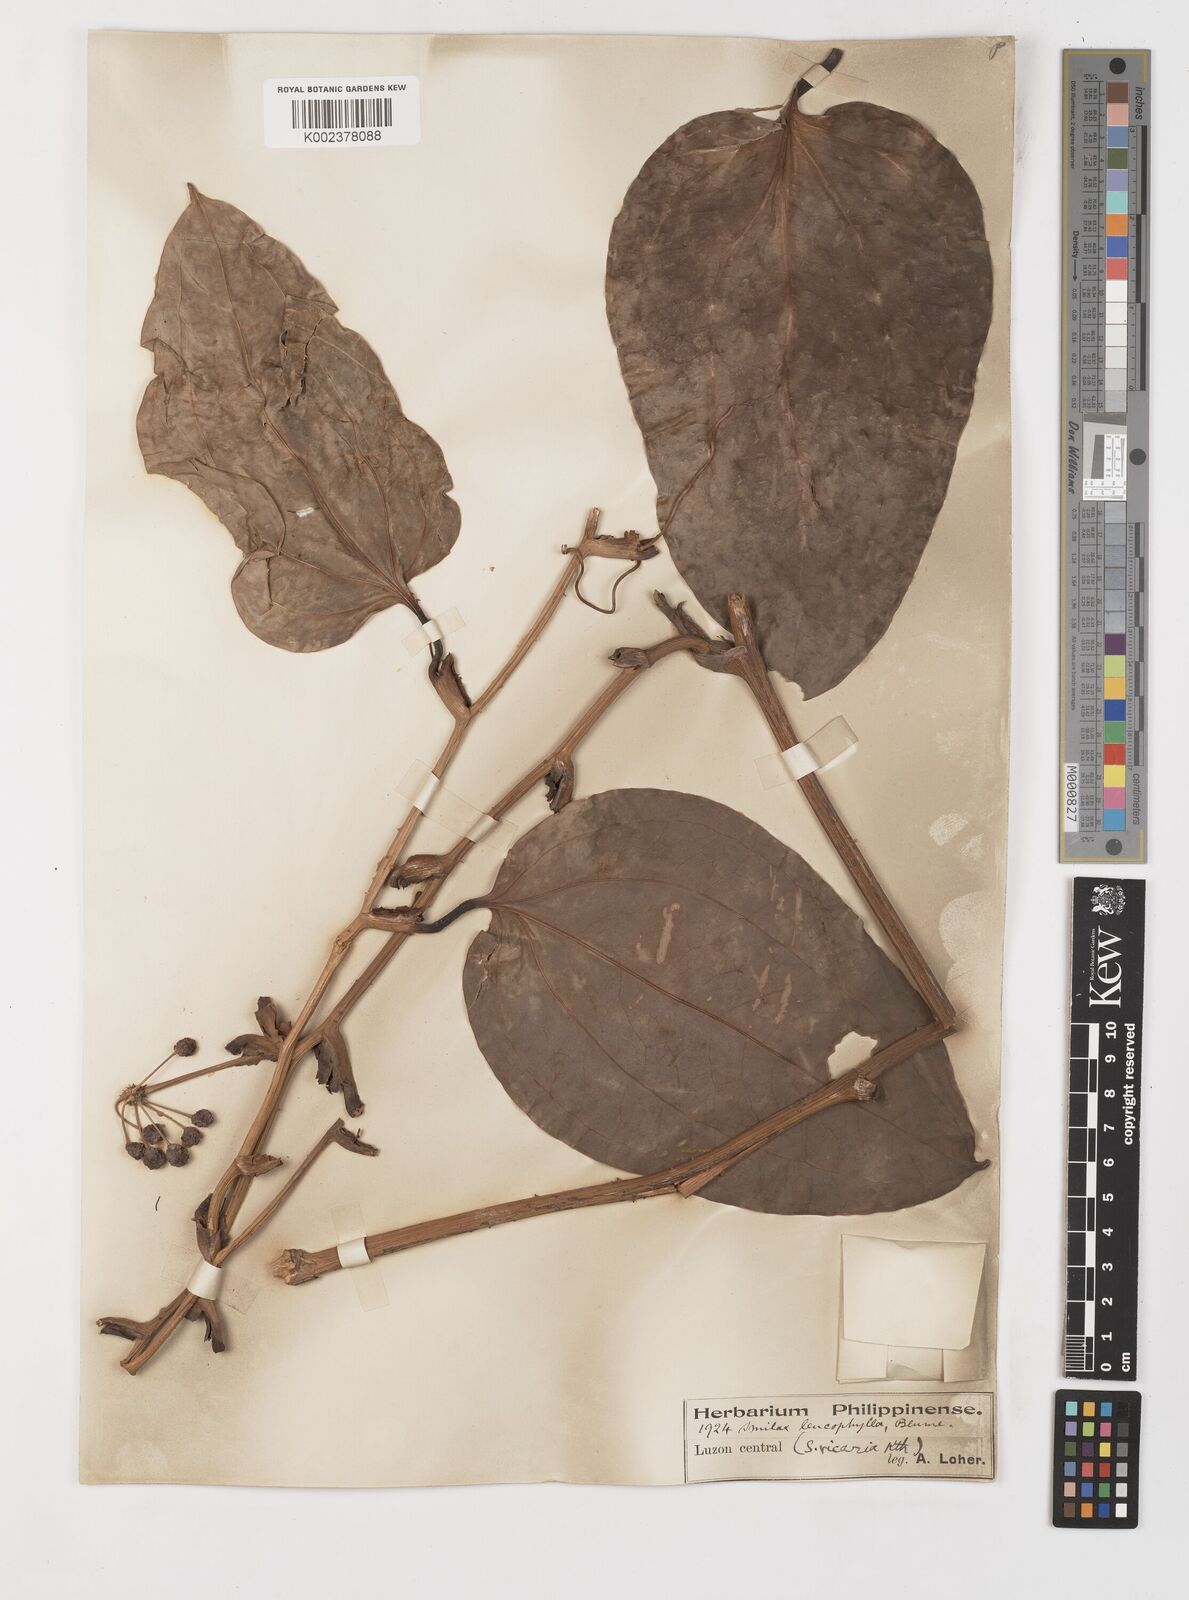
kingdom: Plantae
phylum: Tracheophyta
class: Liliopsida
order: Liliales
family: Smilacaceae
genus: Smilax
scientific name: Smilax leucophylla
